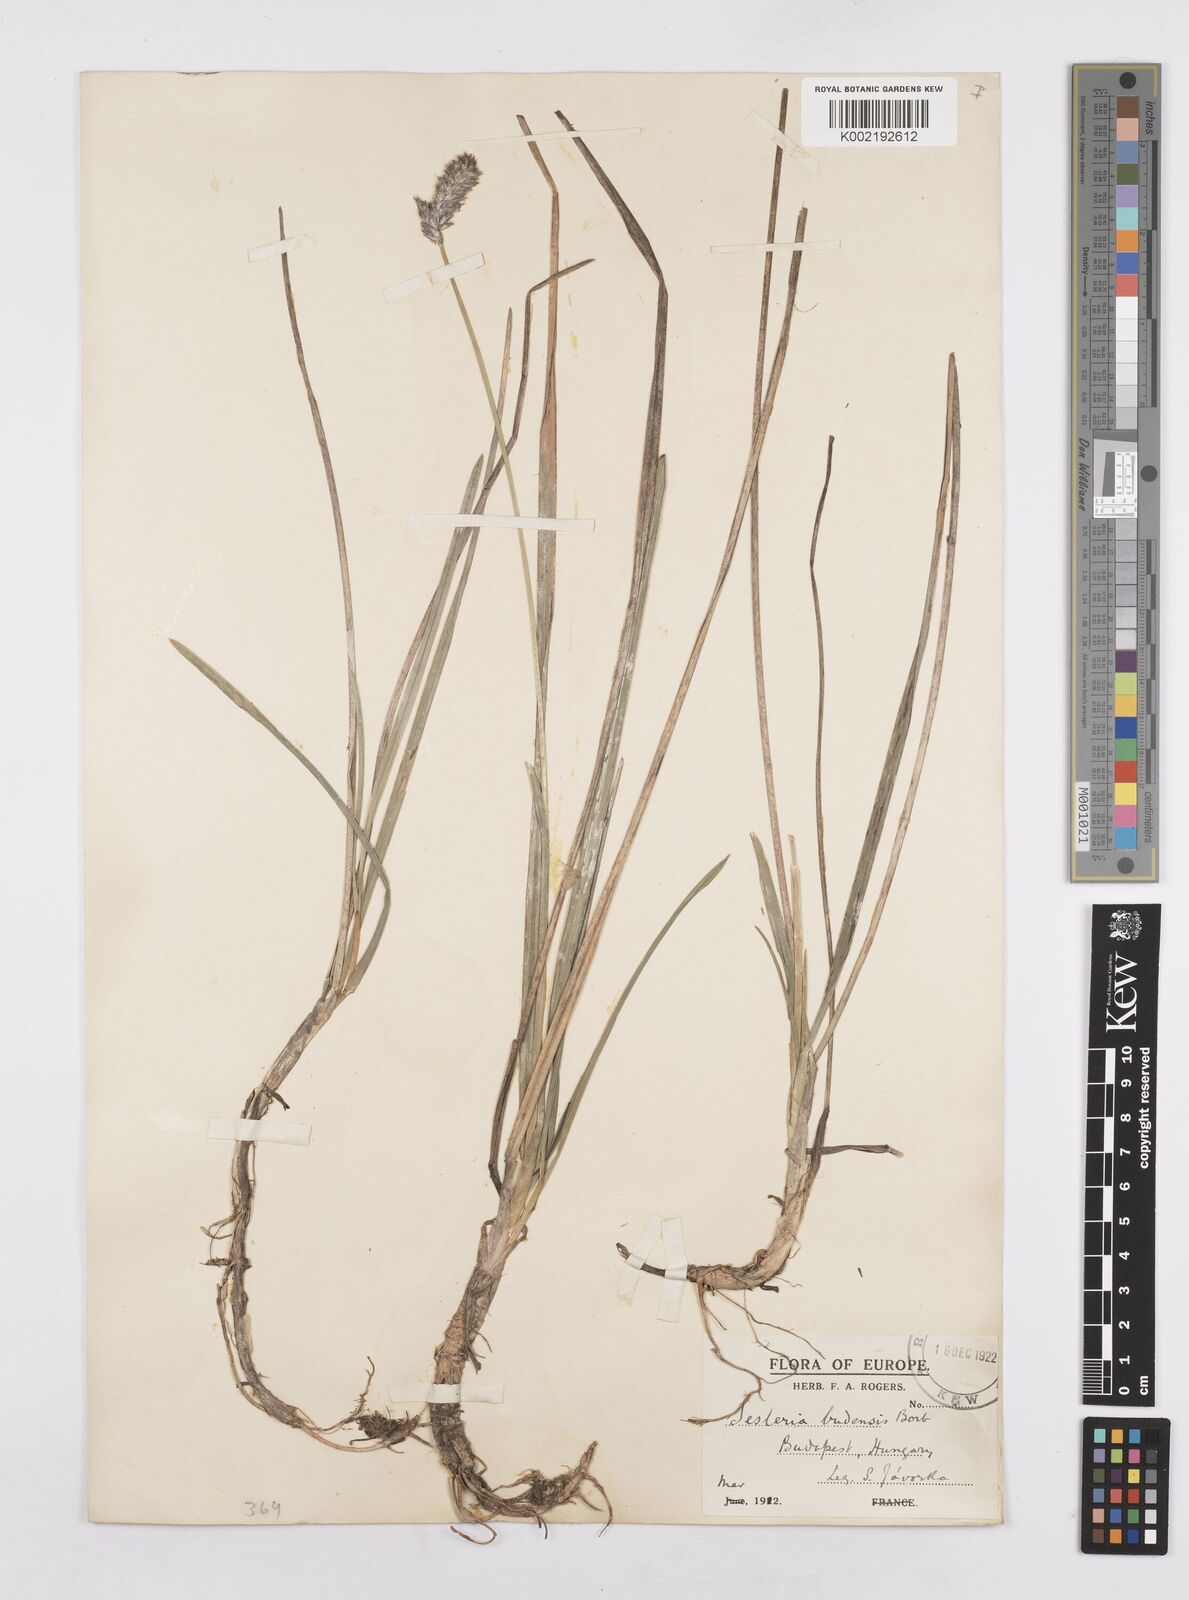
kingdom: Plantae
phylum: Tracheophyta
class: Liliopsida
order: Poales
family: Poaceae
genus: Sesleria
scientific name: Sesleria heufleriana
